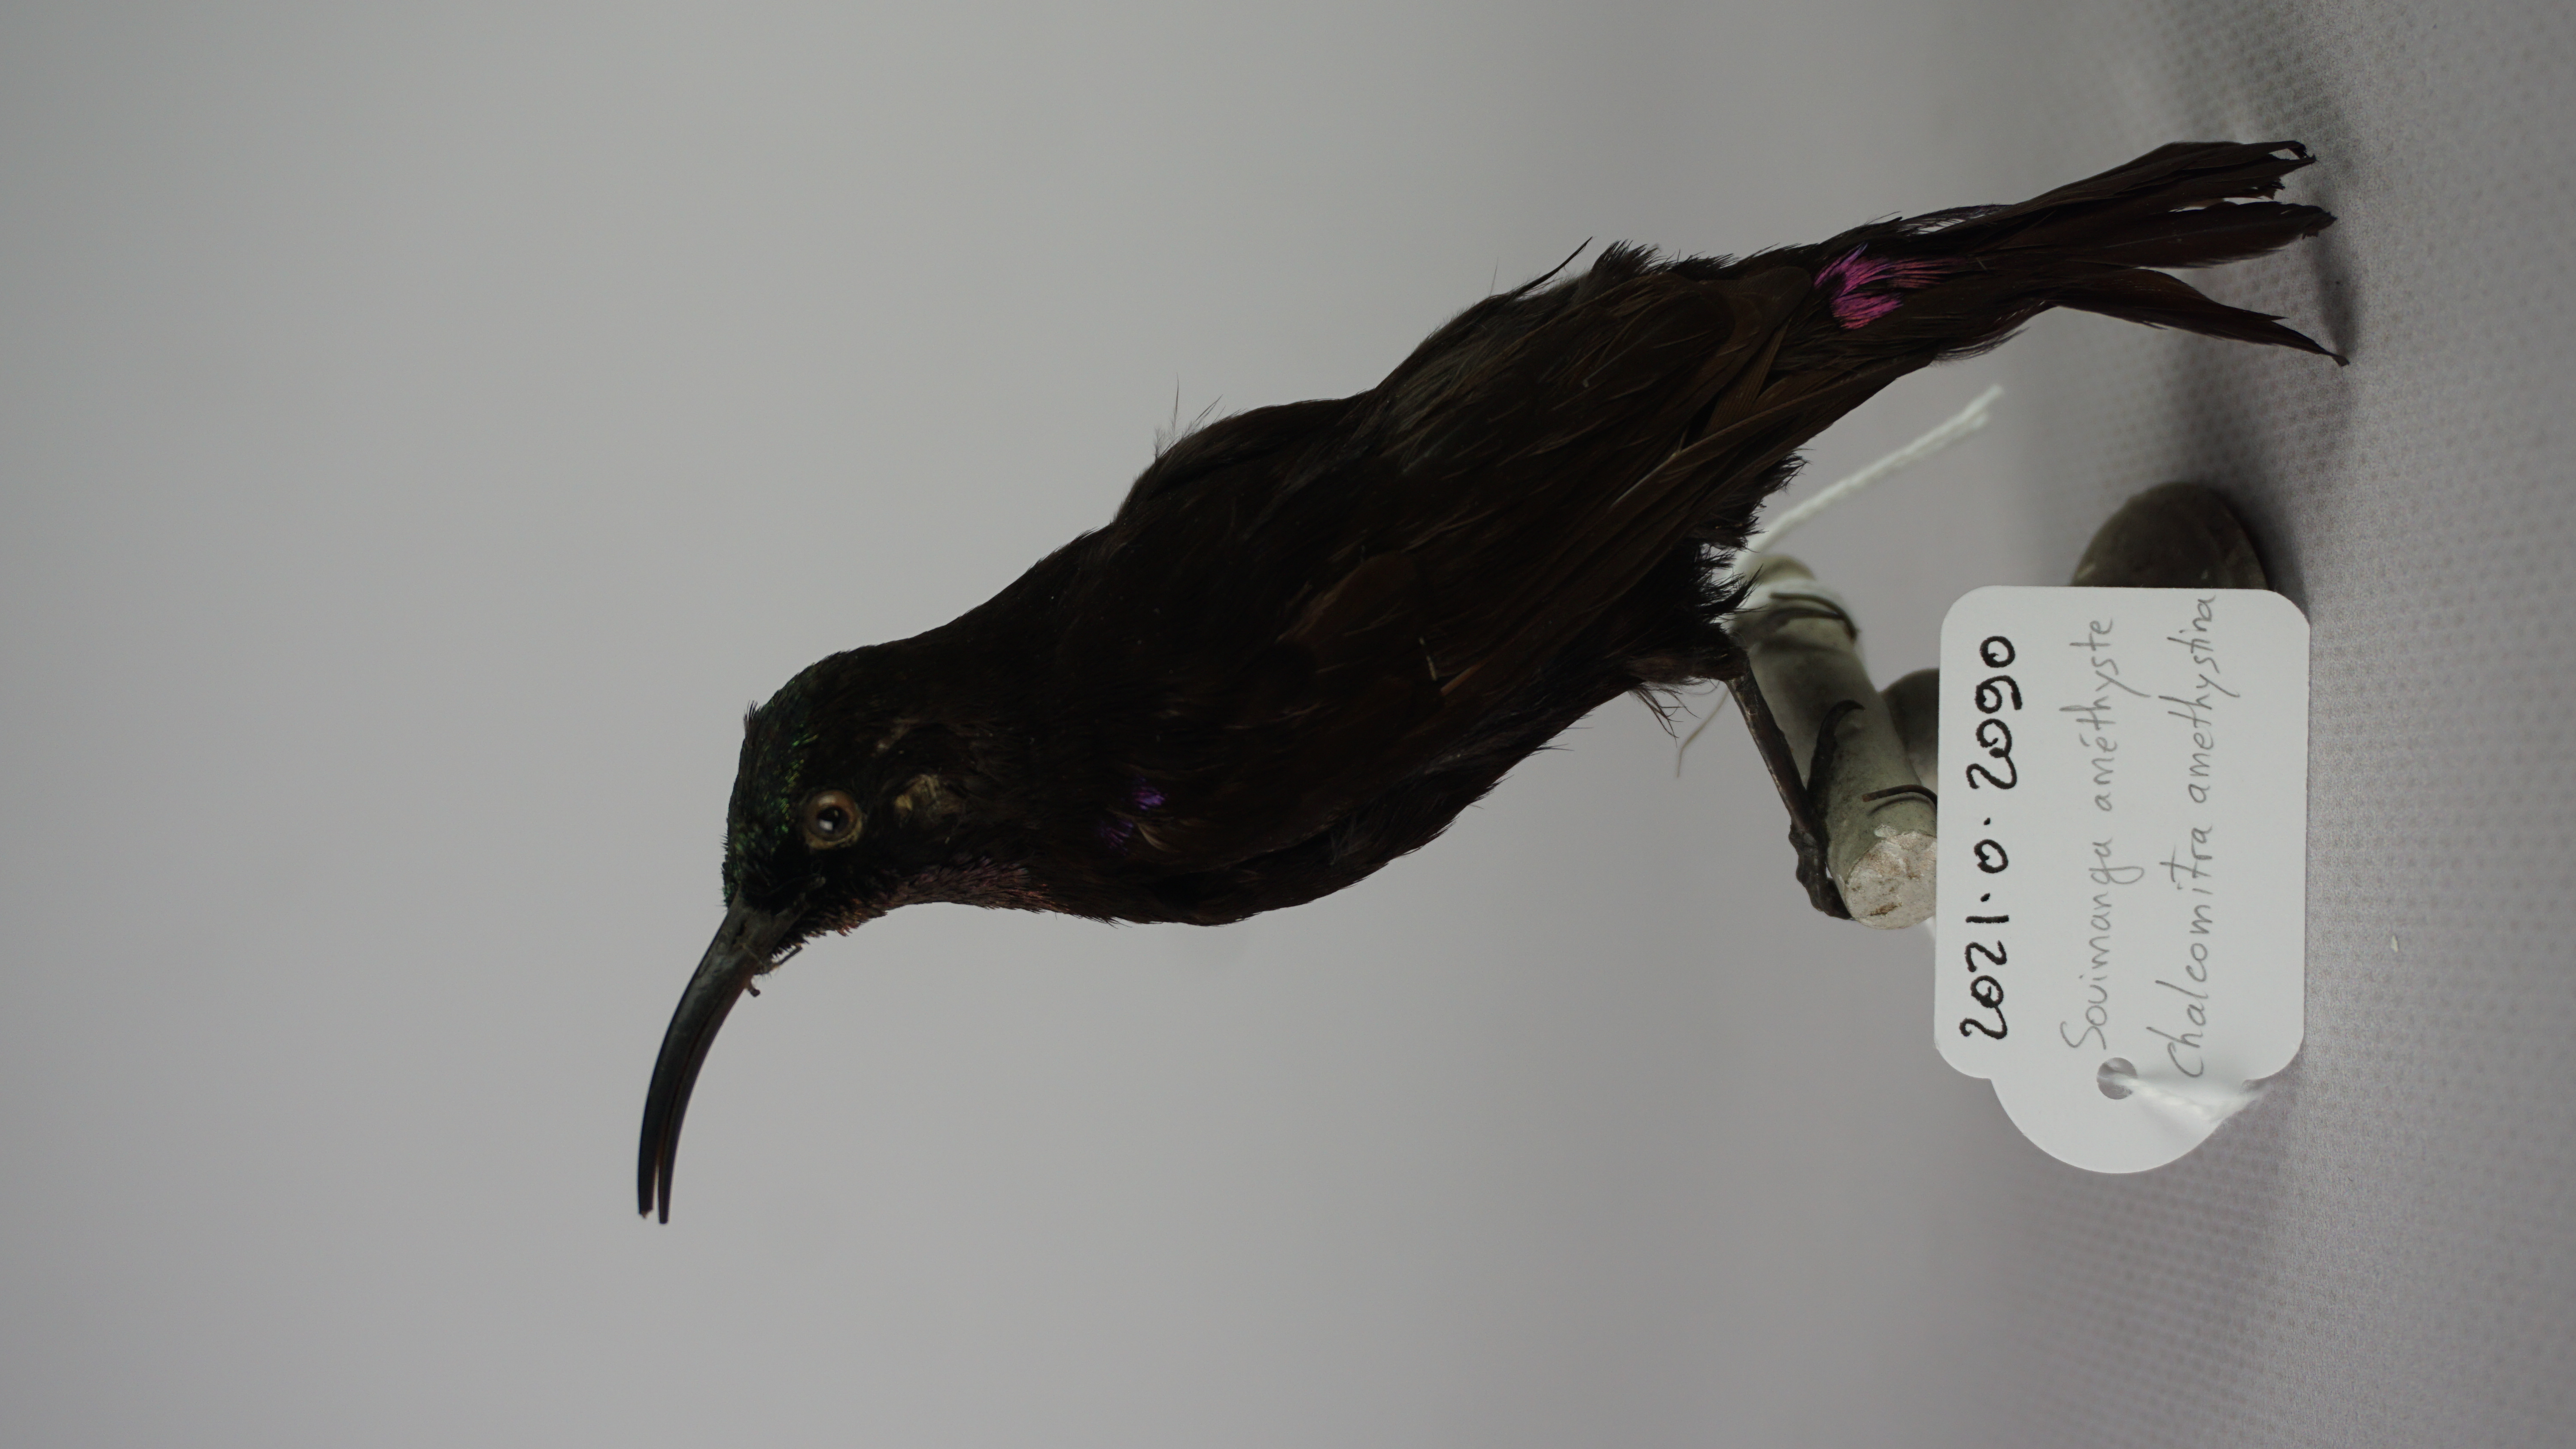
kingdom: Animalia
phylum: Chordata
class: Aves
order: Passeriformes
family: Nectariniidae
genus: Chalcomitra
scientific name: Chalcomitra amethystina
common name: Amethyst sunbird
